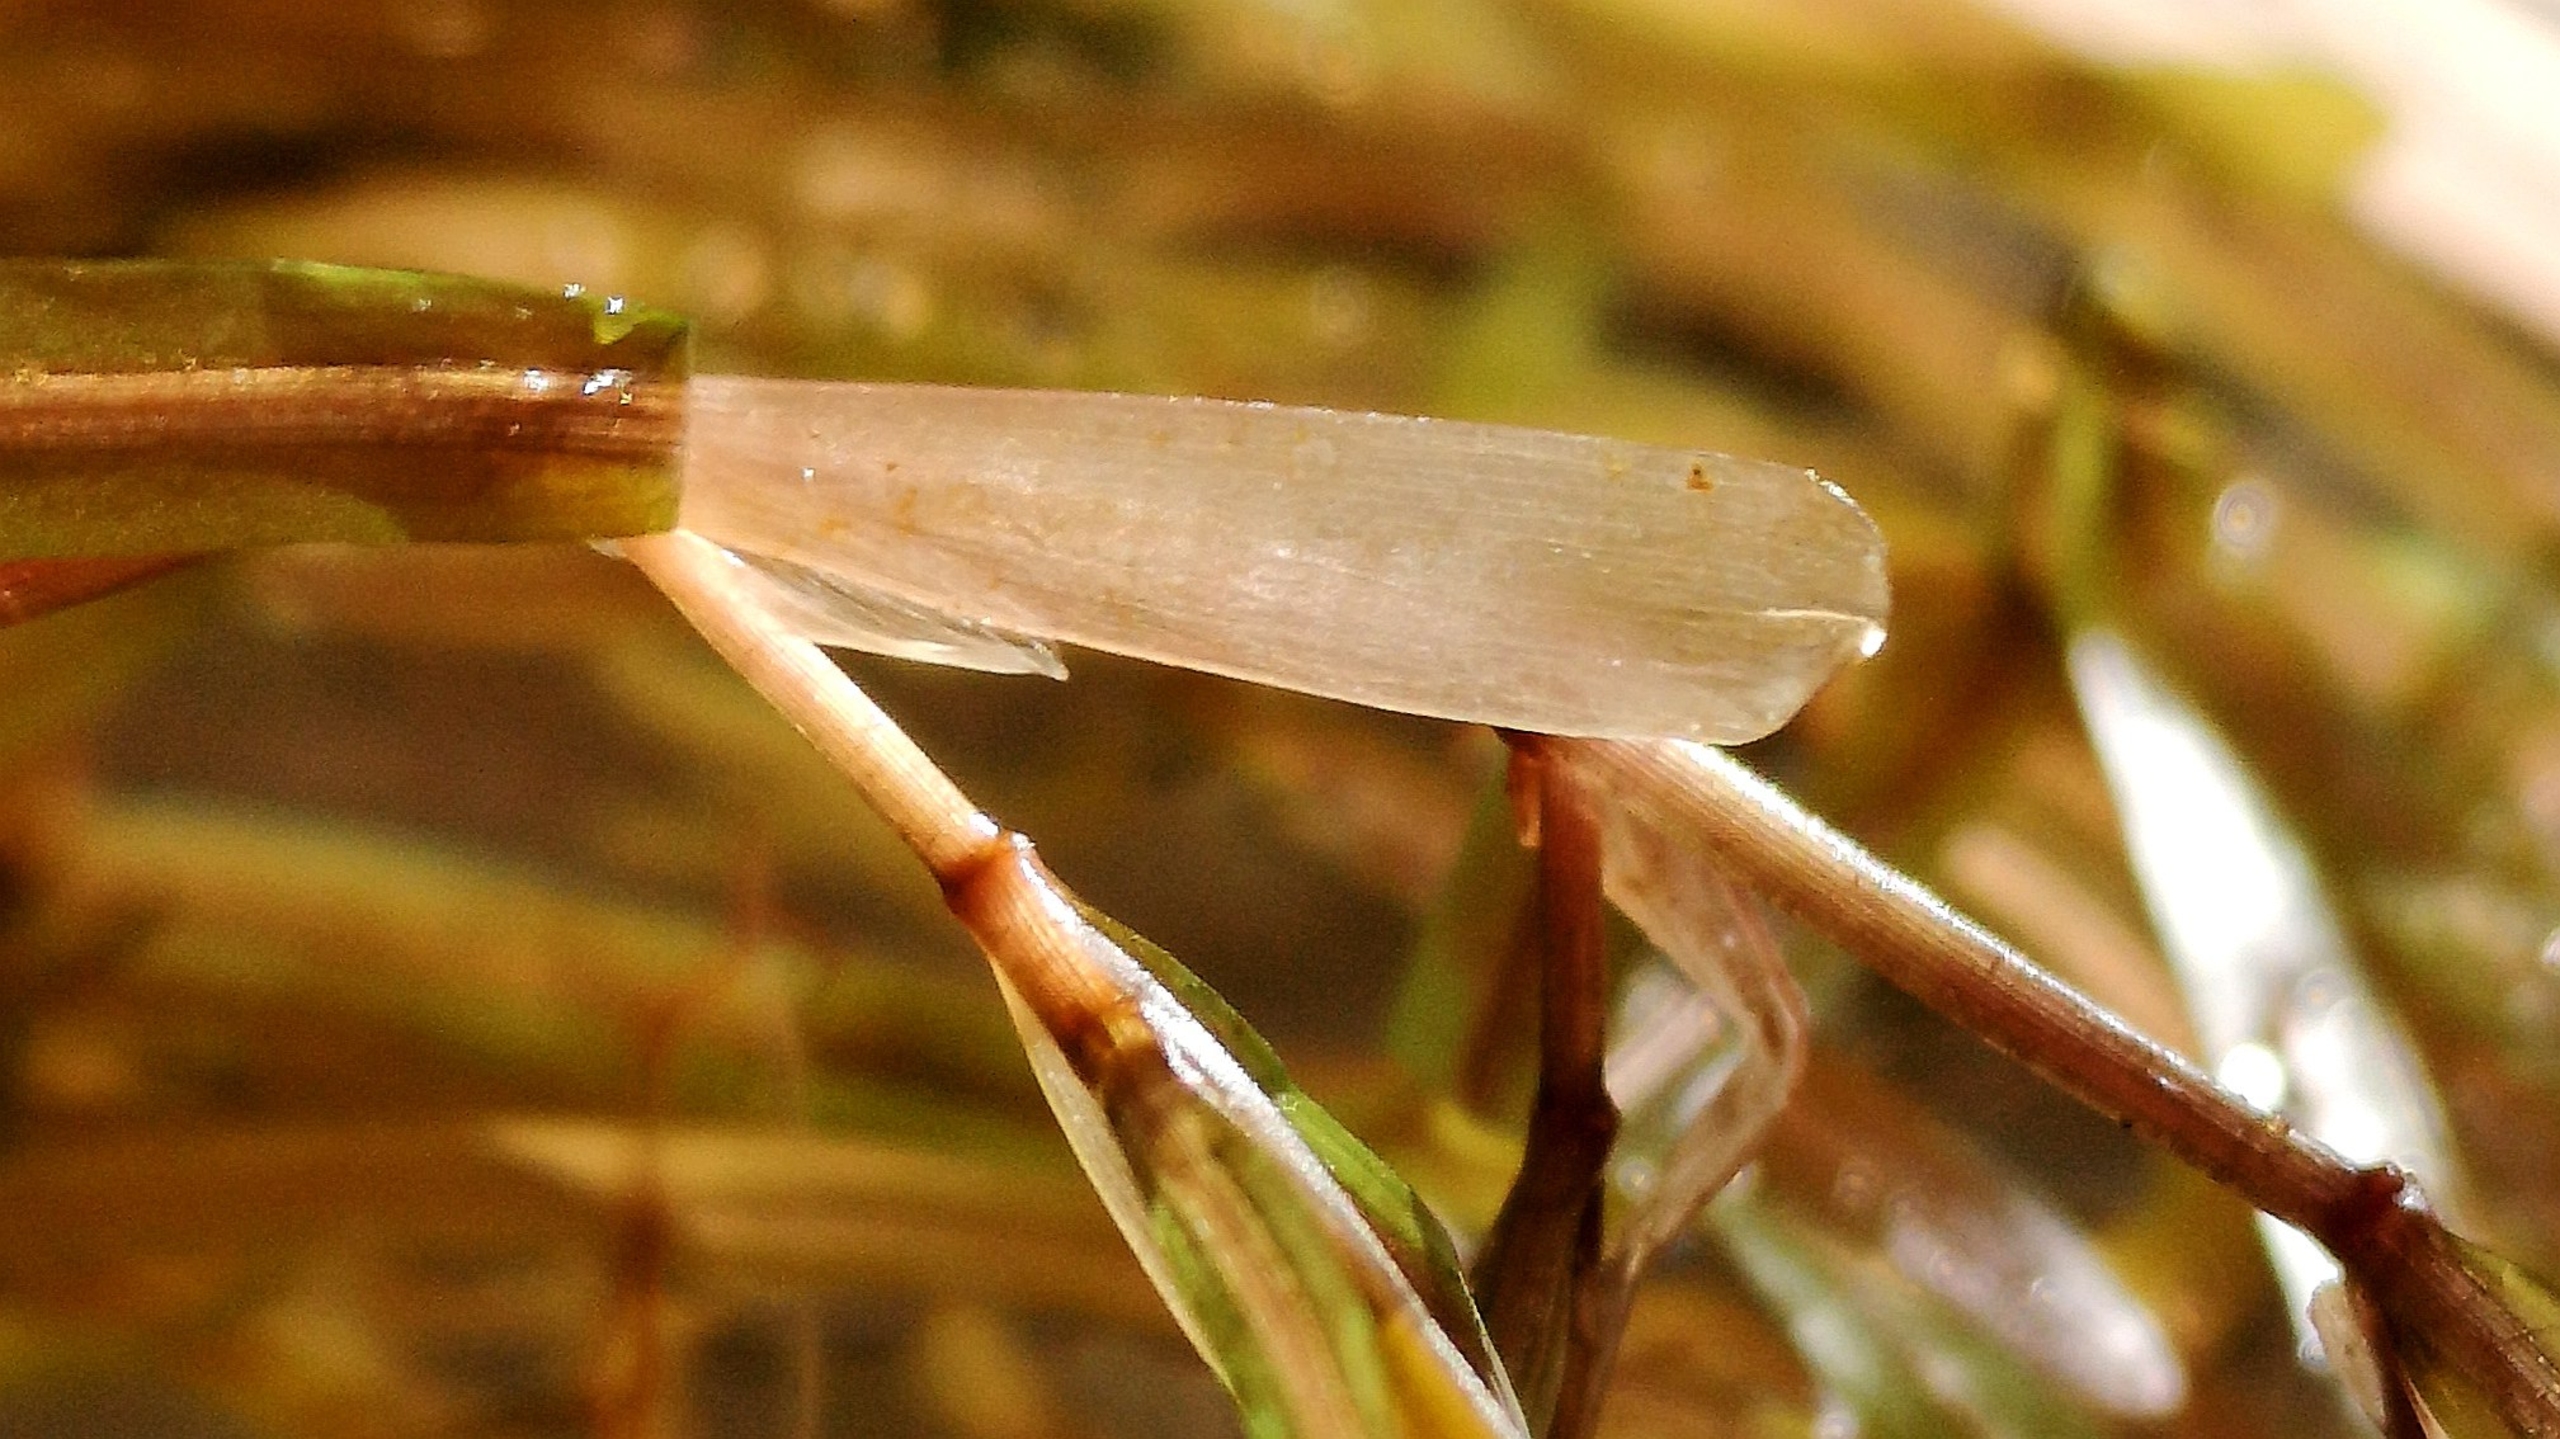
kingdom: Plantae
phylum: Tracheophyta
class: Liliopsida
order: Alismatales
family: Potamogetonaceae
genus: Potamogeton
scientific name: Potamogeton obtusifolius
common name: Butbladet vandaks
